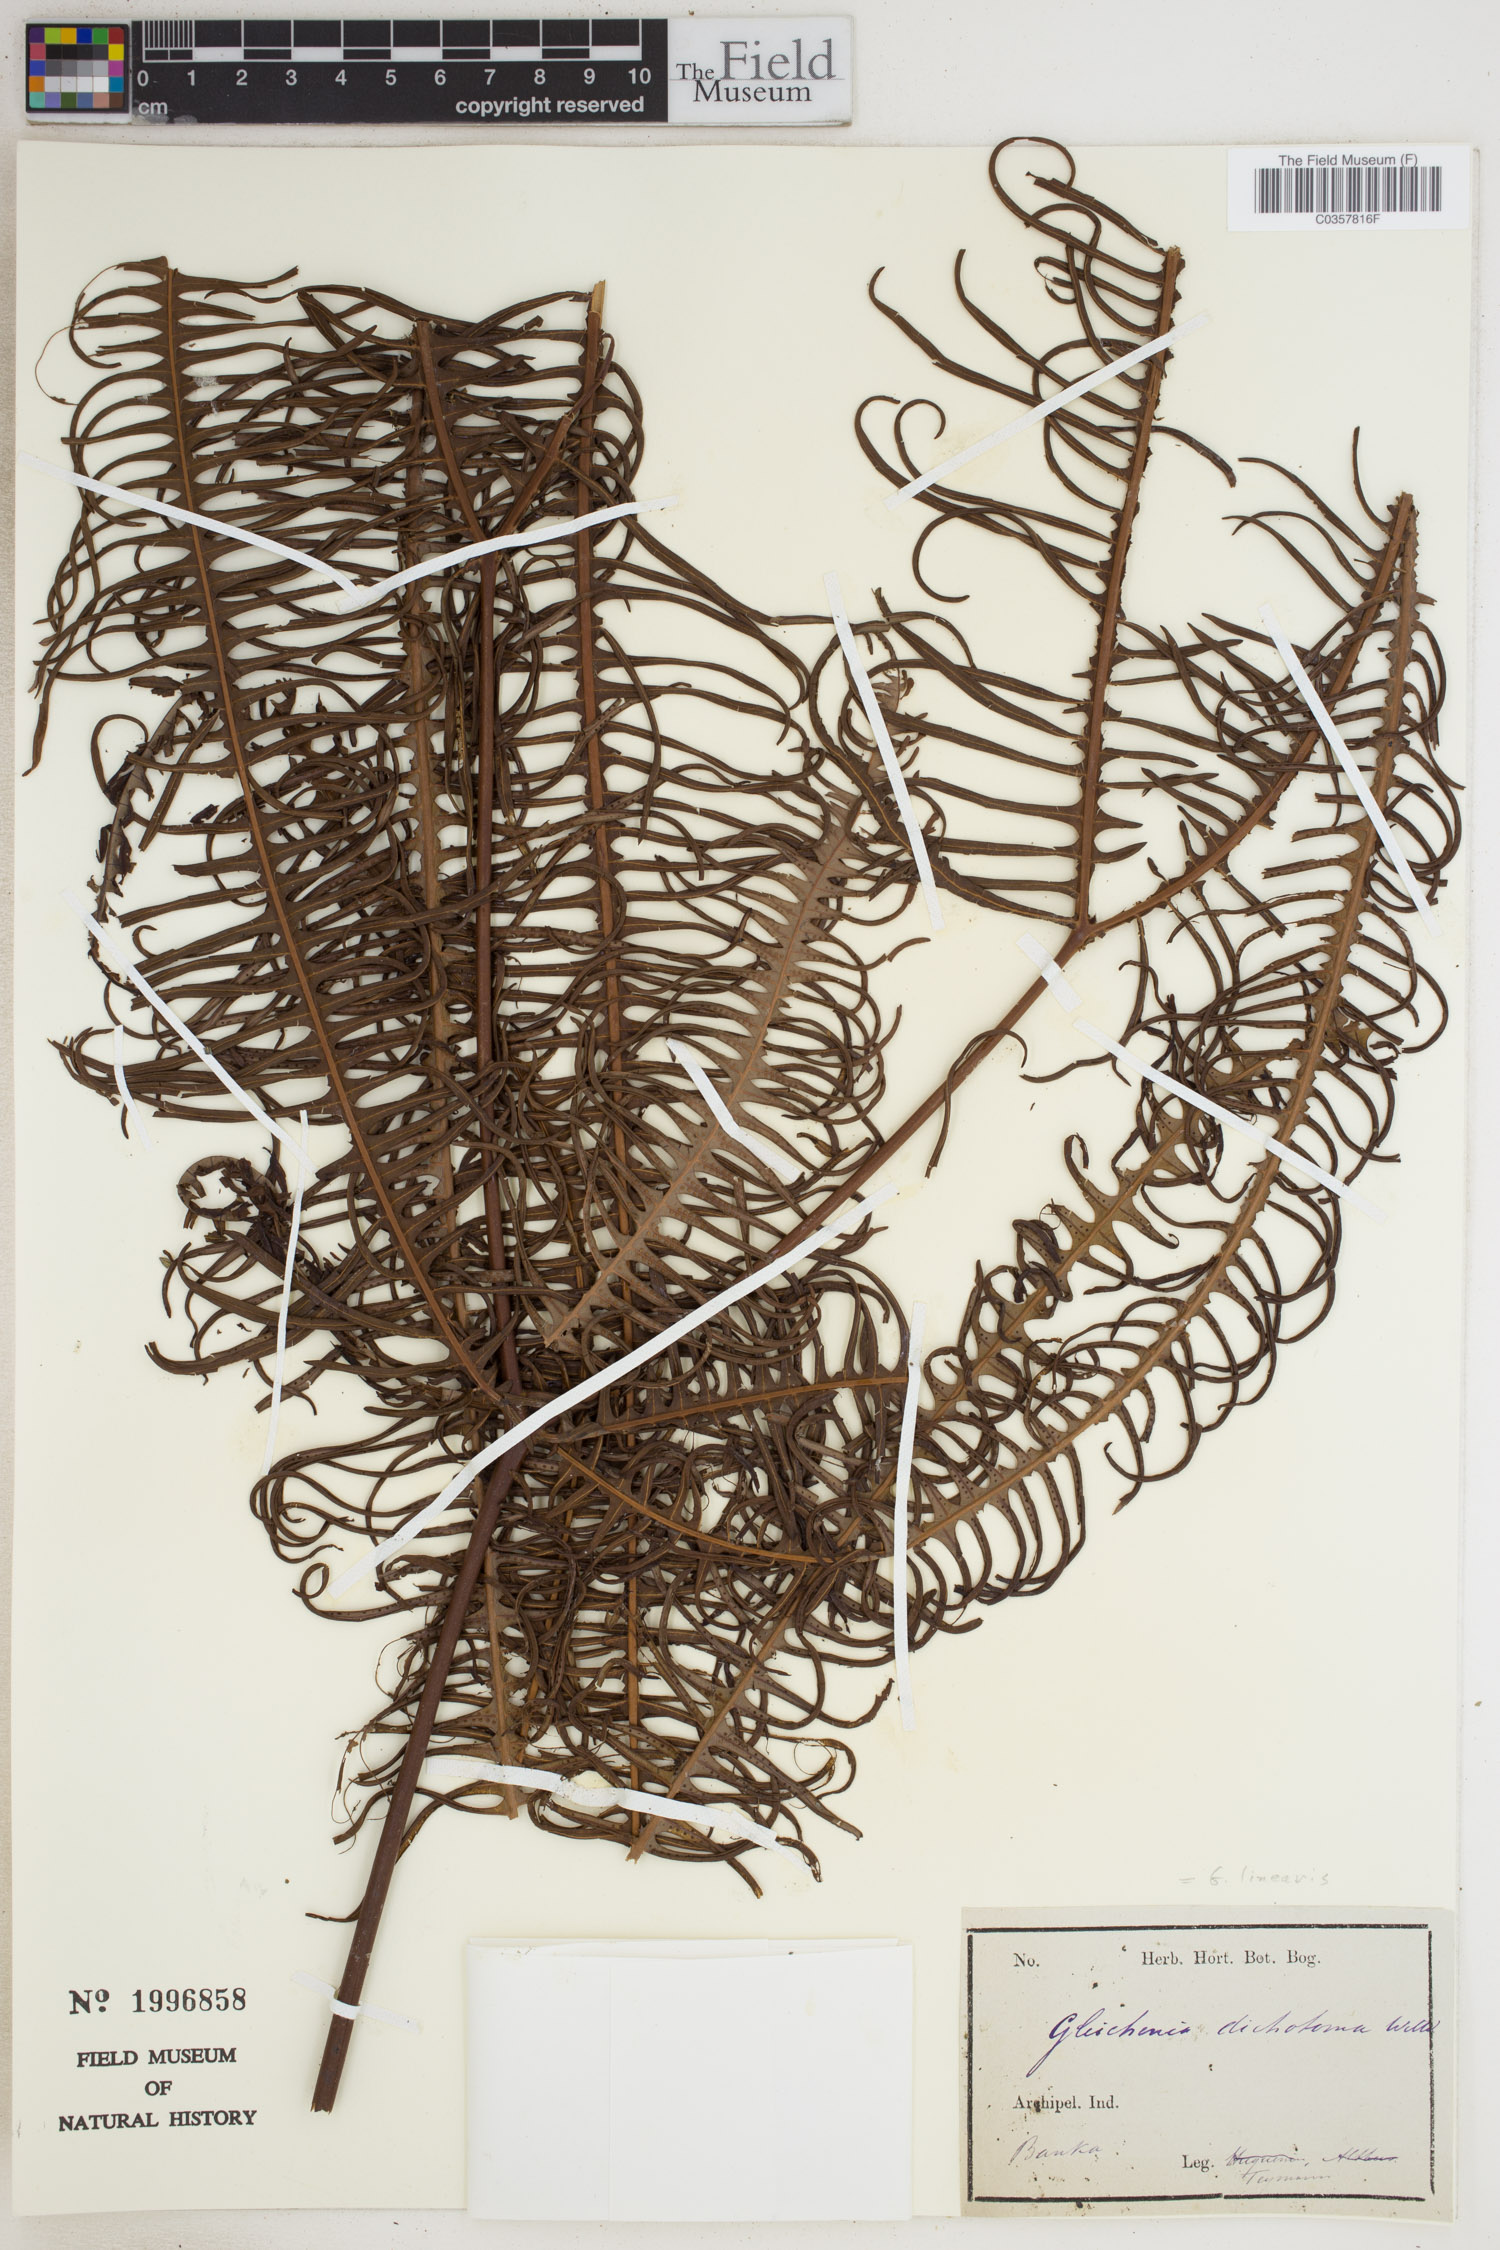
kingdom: Plantae
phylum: Tracheophyta
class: Polypodiopsida
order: Gleicheniales
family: Gleicheniaceae
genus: Dicranopteris
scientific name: Dicranopteris linearis
